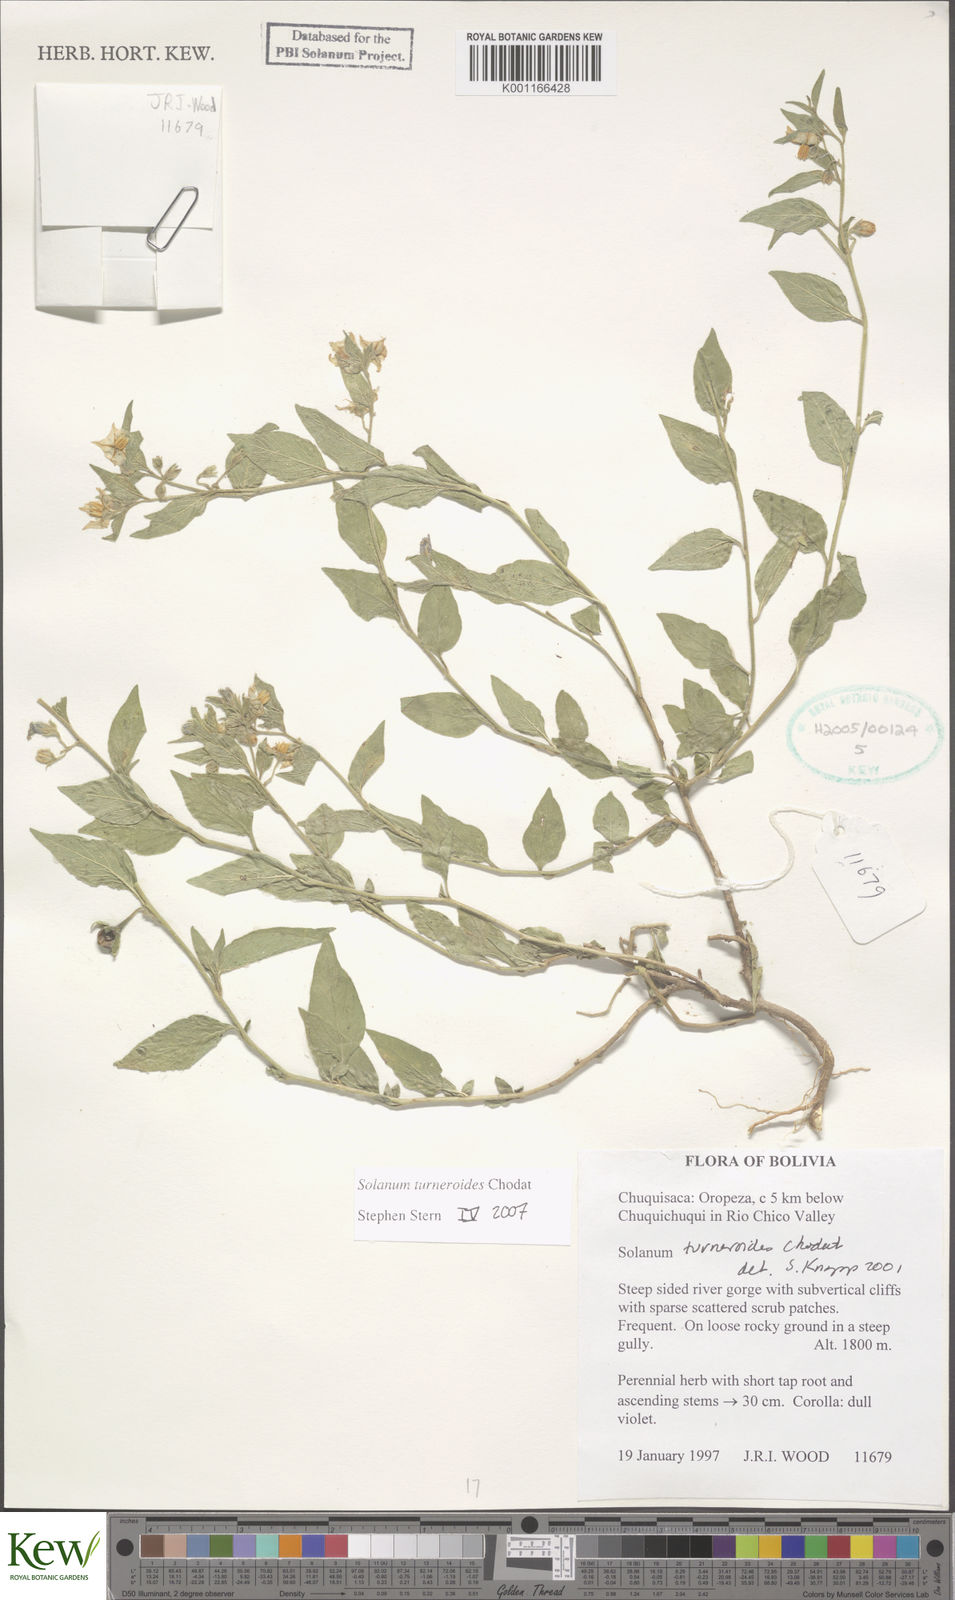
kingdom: Plantae
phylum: Tracheophyta
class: Magnoliopsida
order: Solanales
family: Solanaceae
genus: Solanum
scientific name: Solanum turneroides
